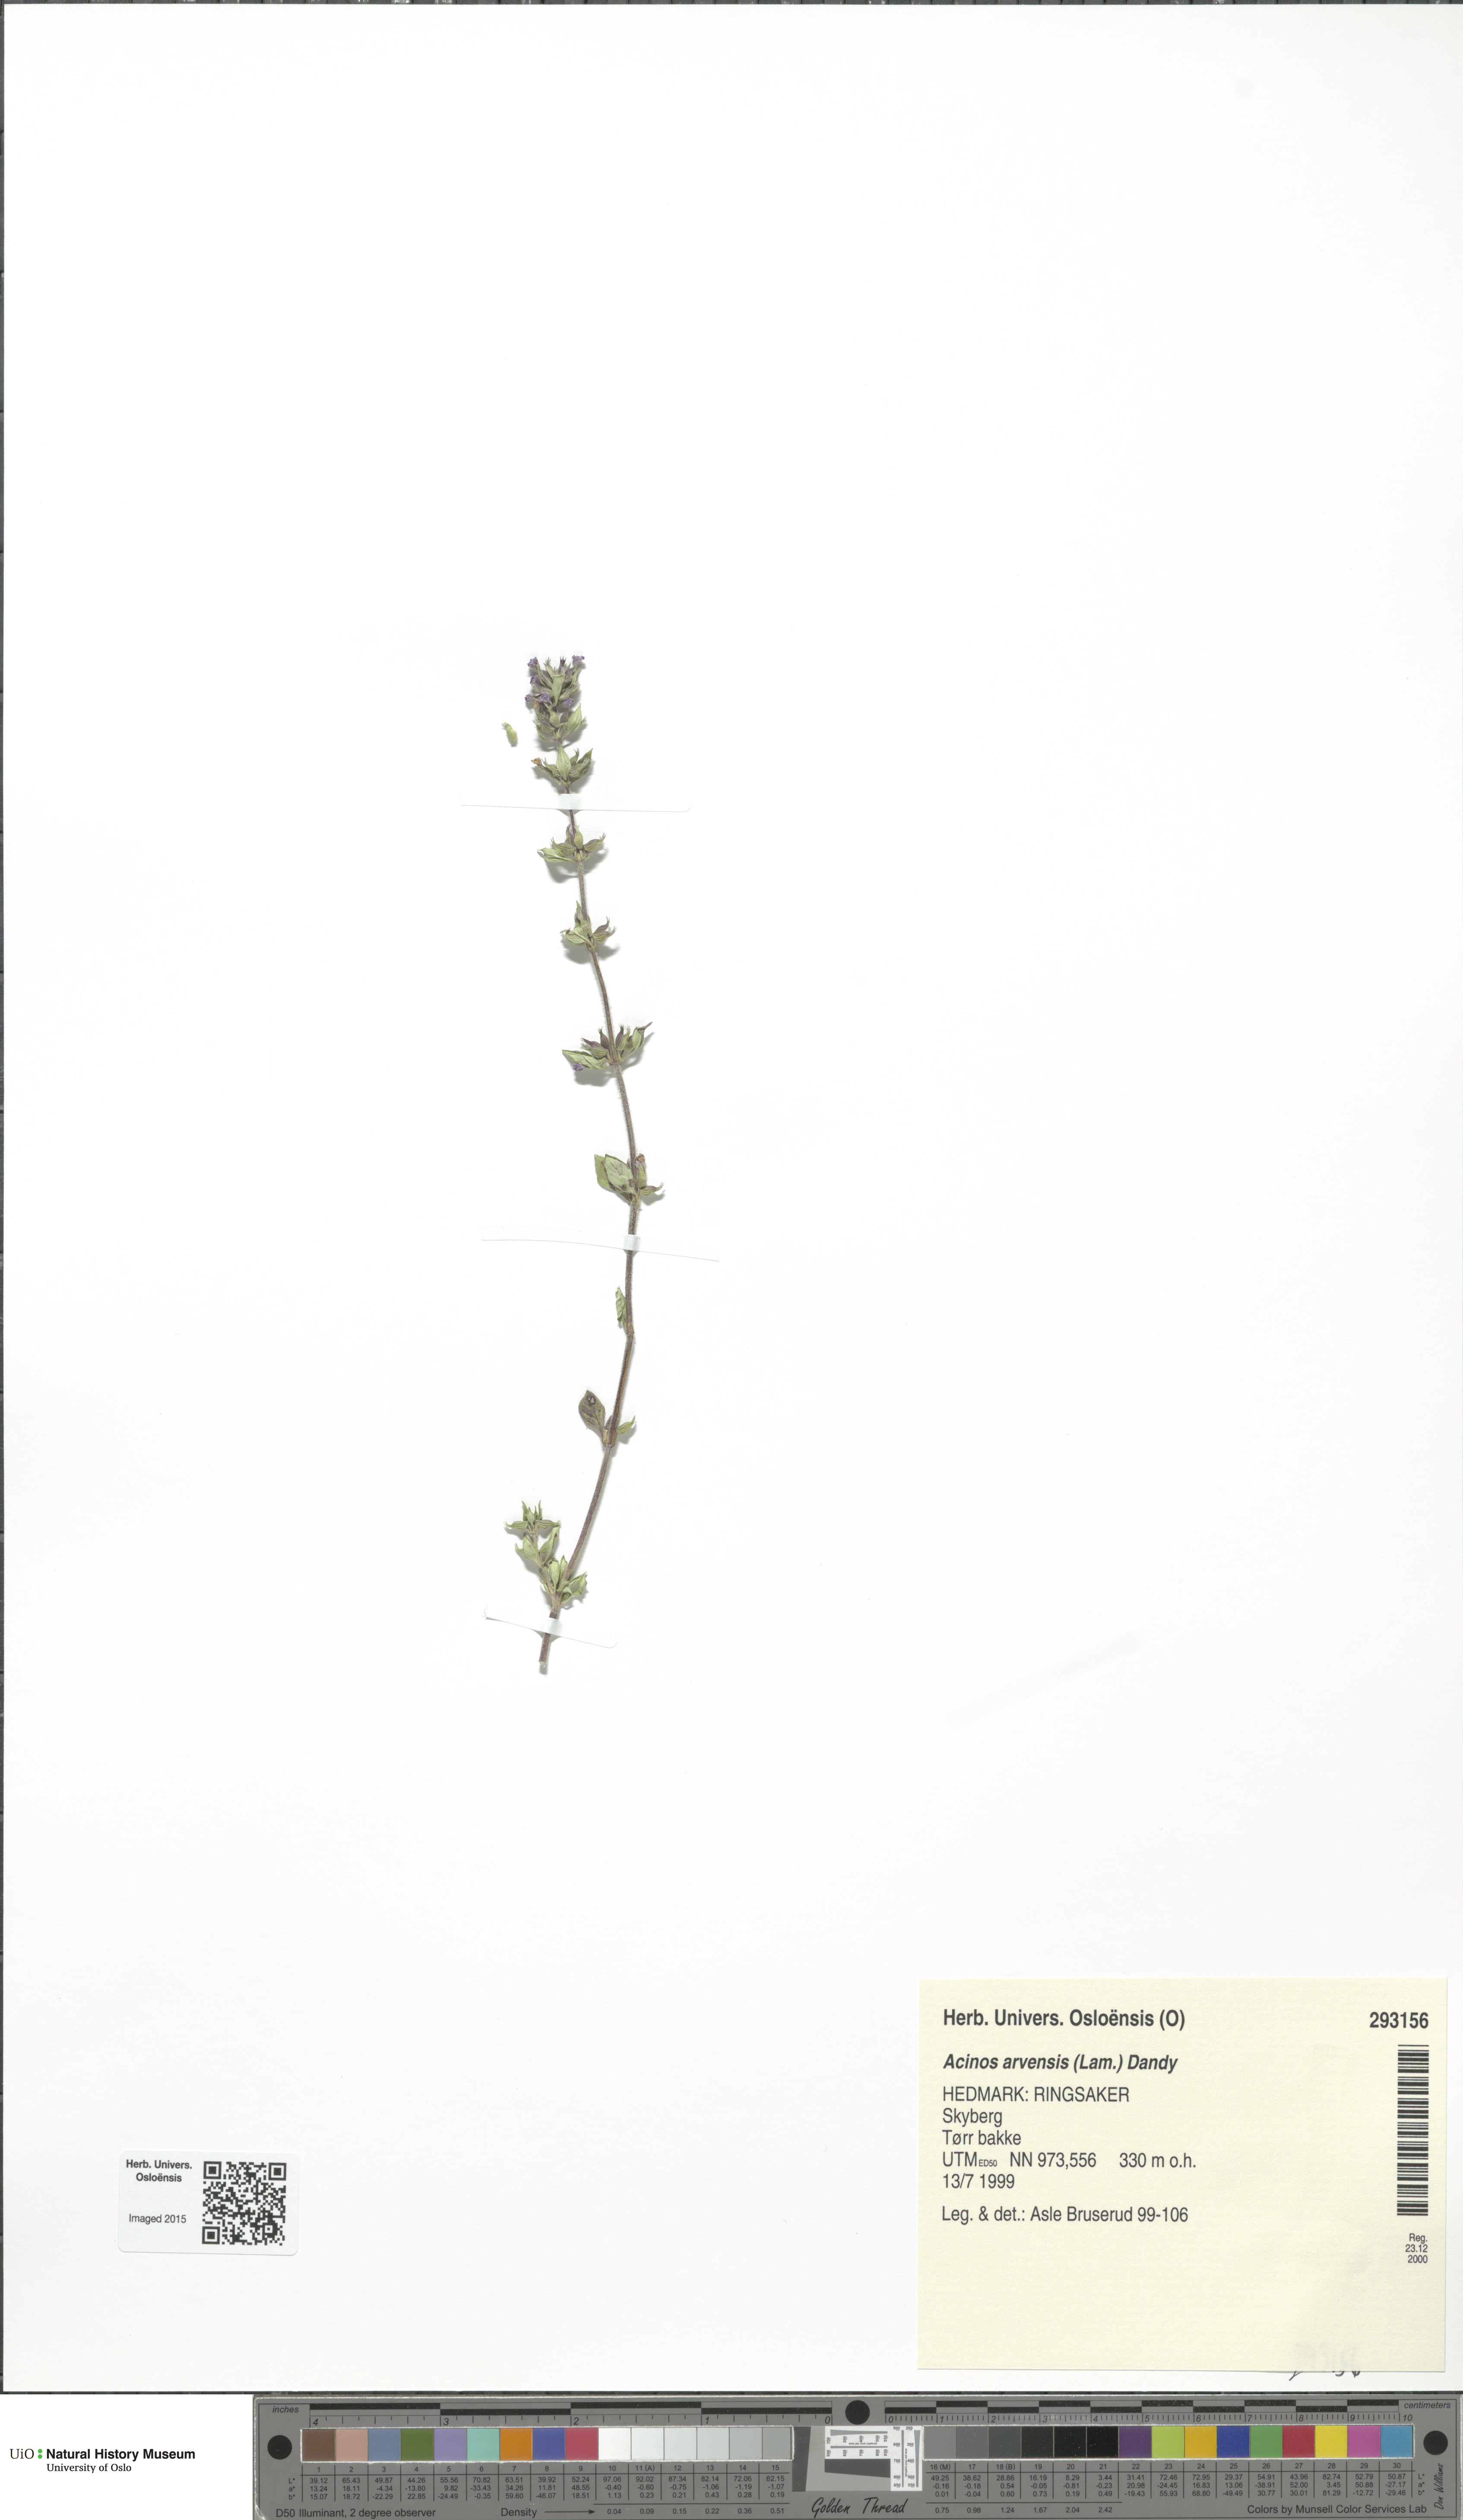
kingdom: Plantae
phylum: Tracheophyta
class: Magnoliopsida
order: Lamiales
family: Lamiaceae
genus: Clinopodium
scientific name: Clinopodium acinos
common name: Basil thyme
